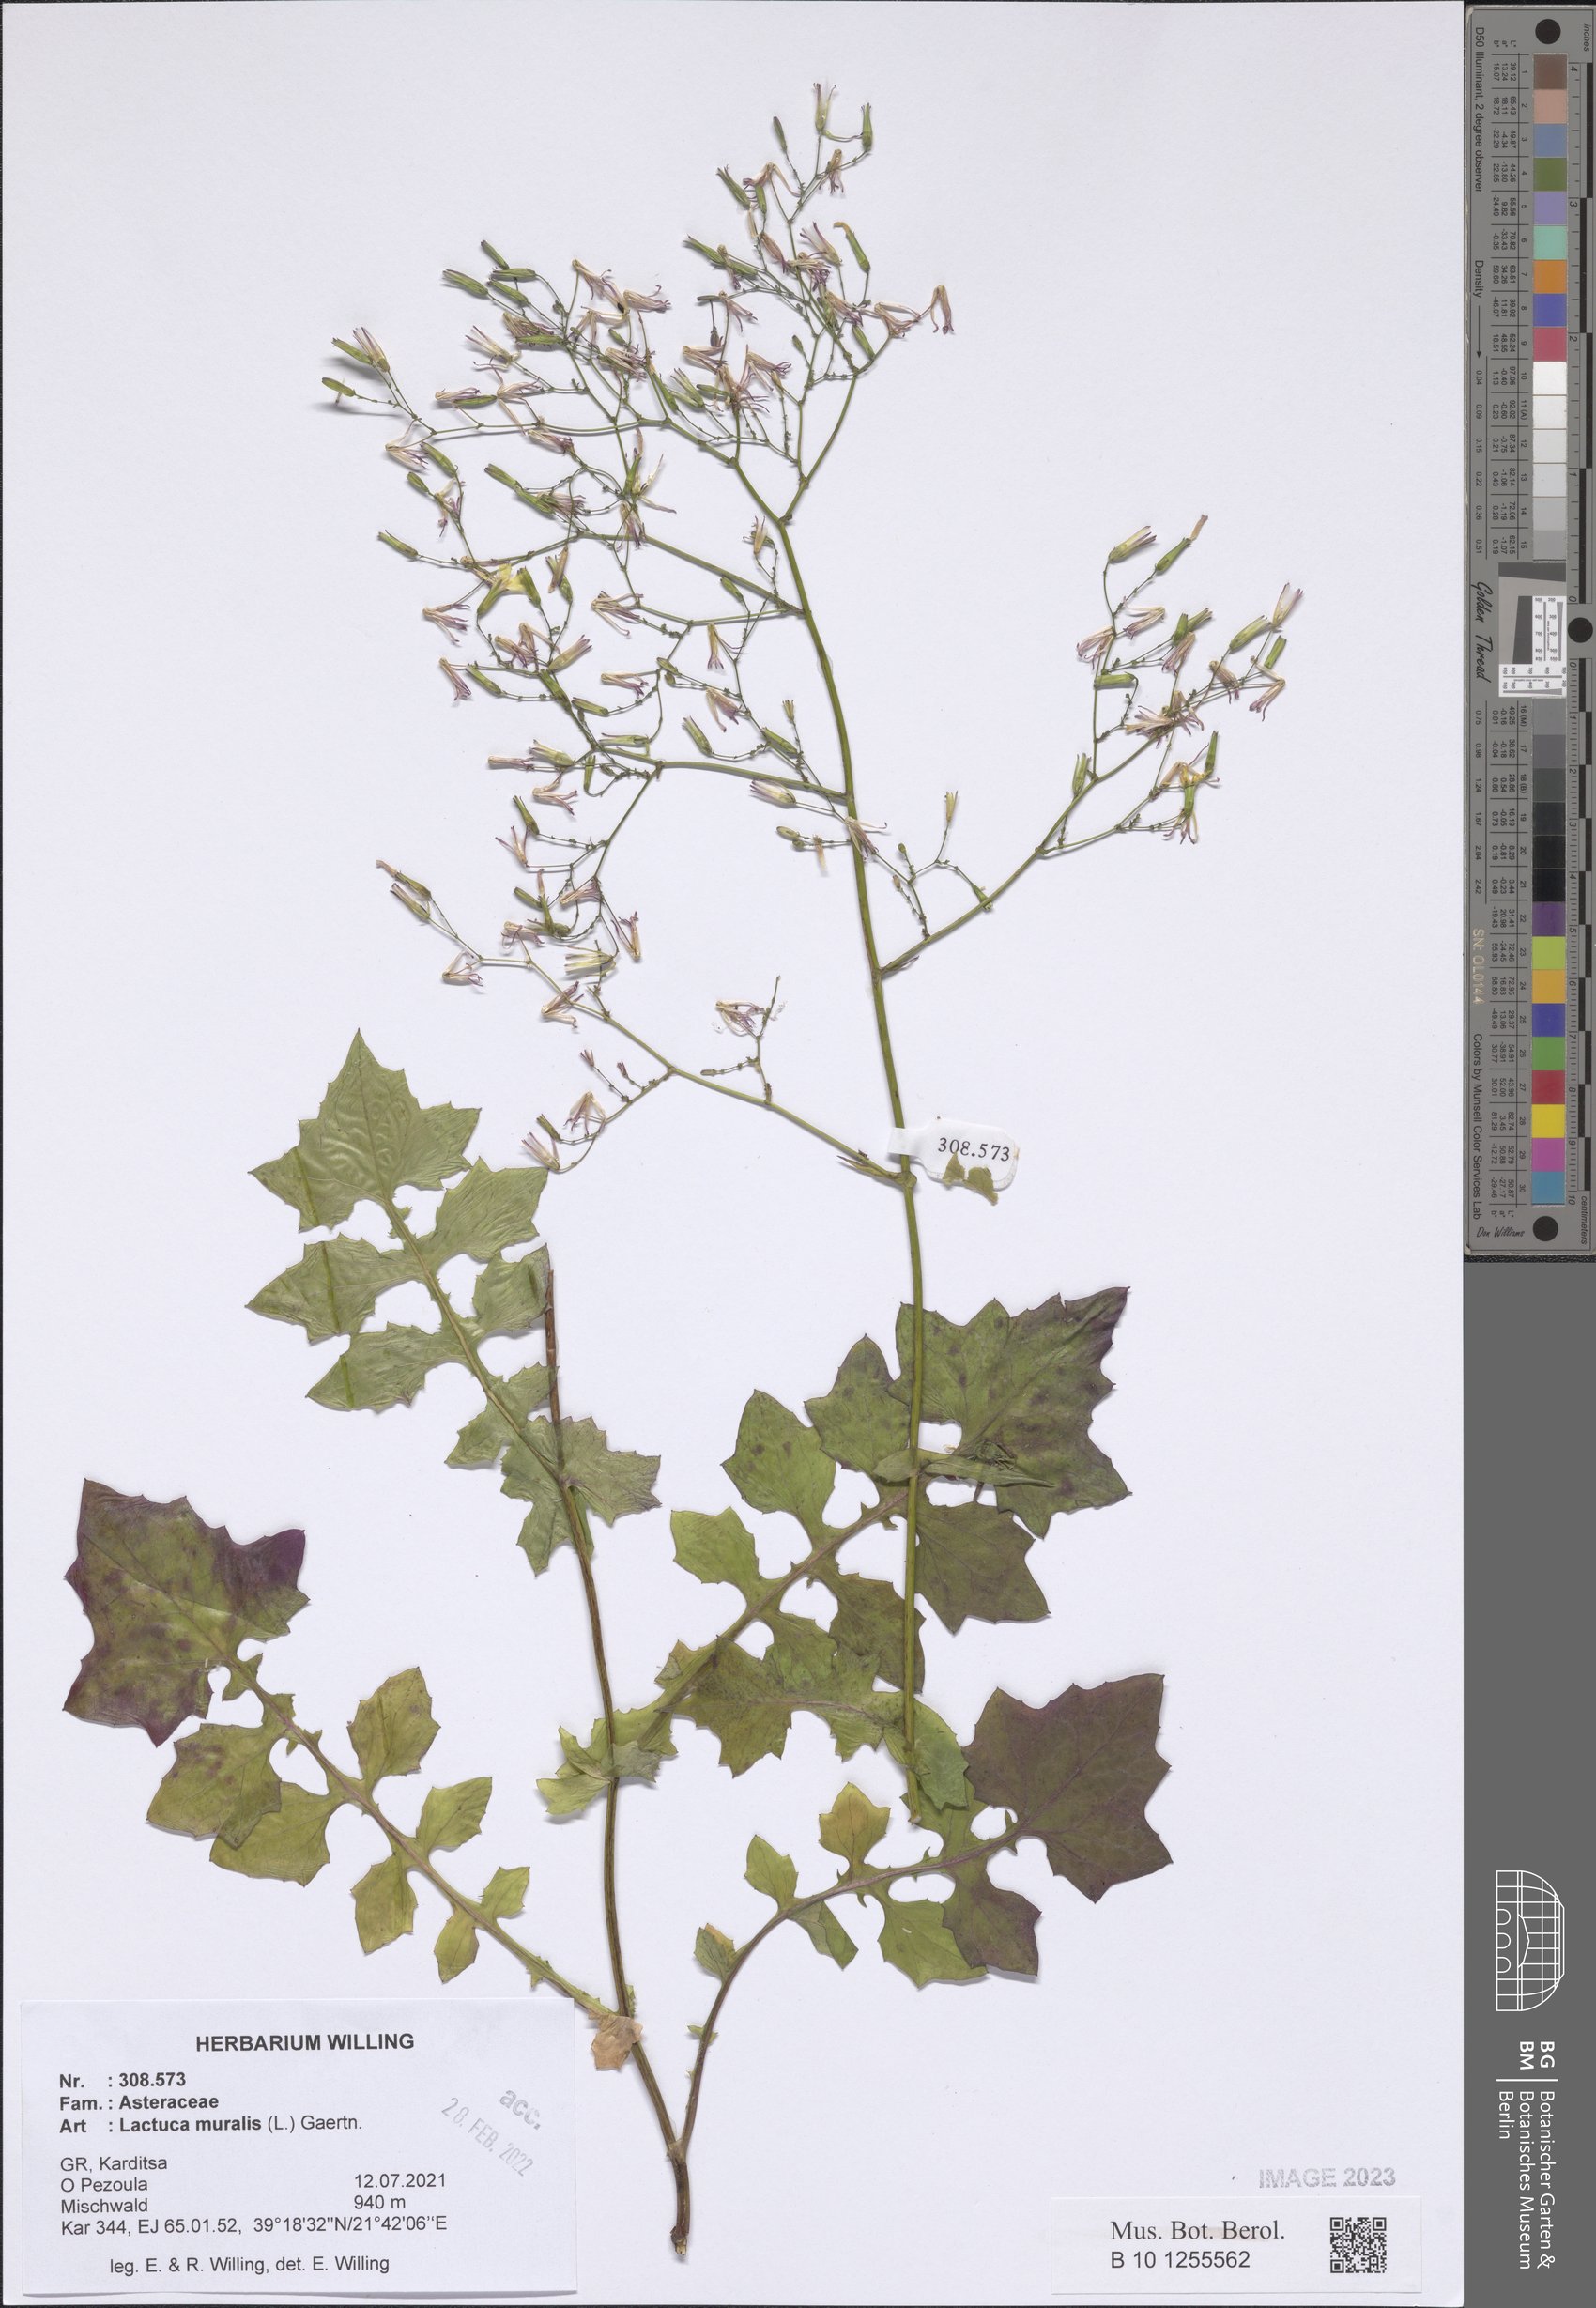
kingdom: Plantae
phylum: Tracheophyta
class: Magnoliopsida
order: Asterales
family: Asteraceae
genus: Mycelis
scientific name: Mycelis muralis
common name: Wall lettuce
